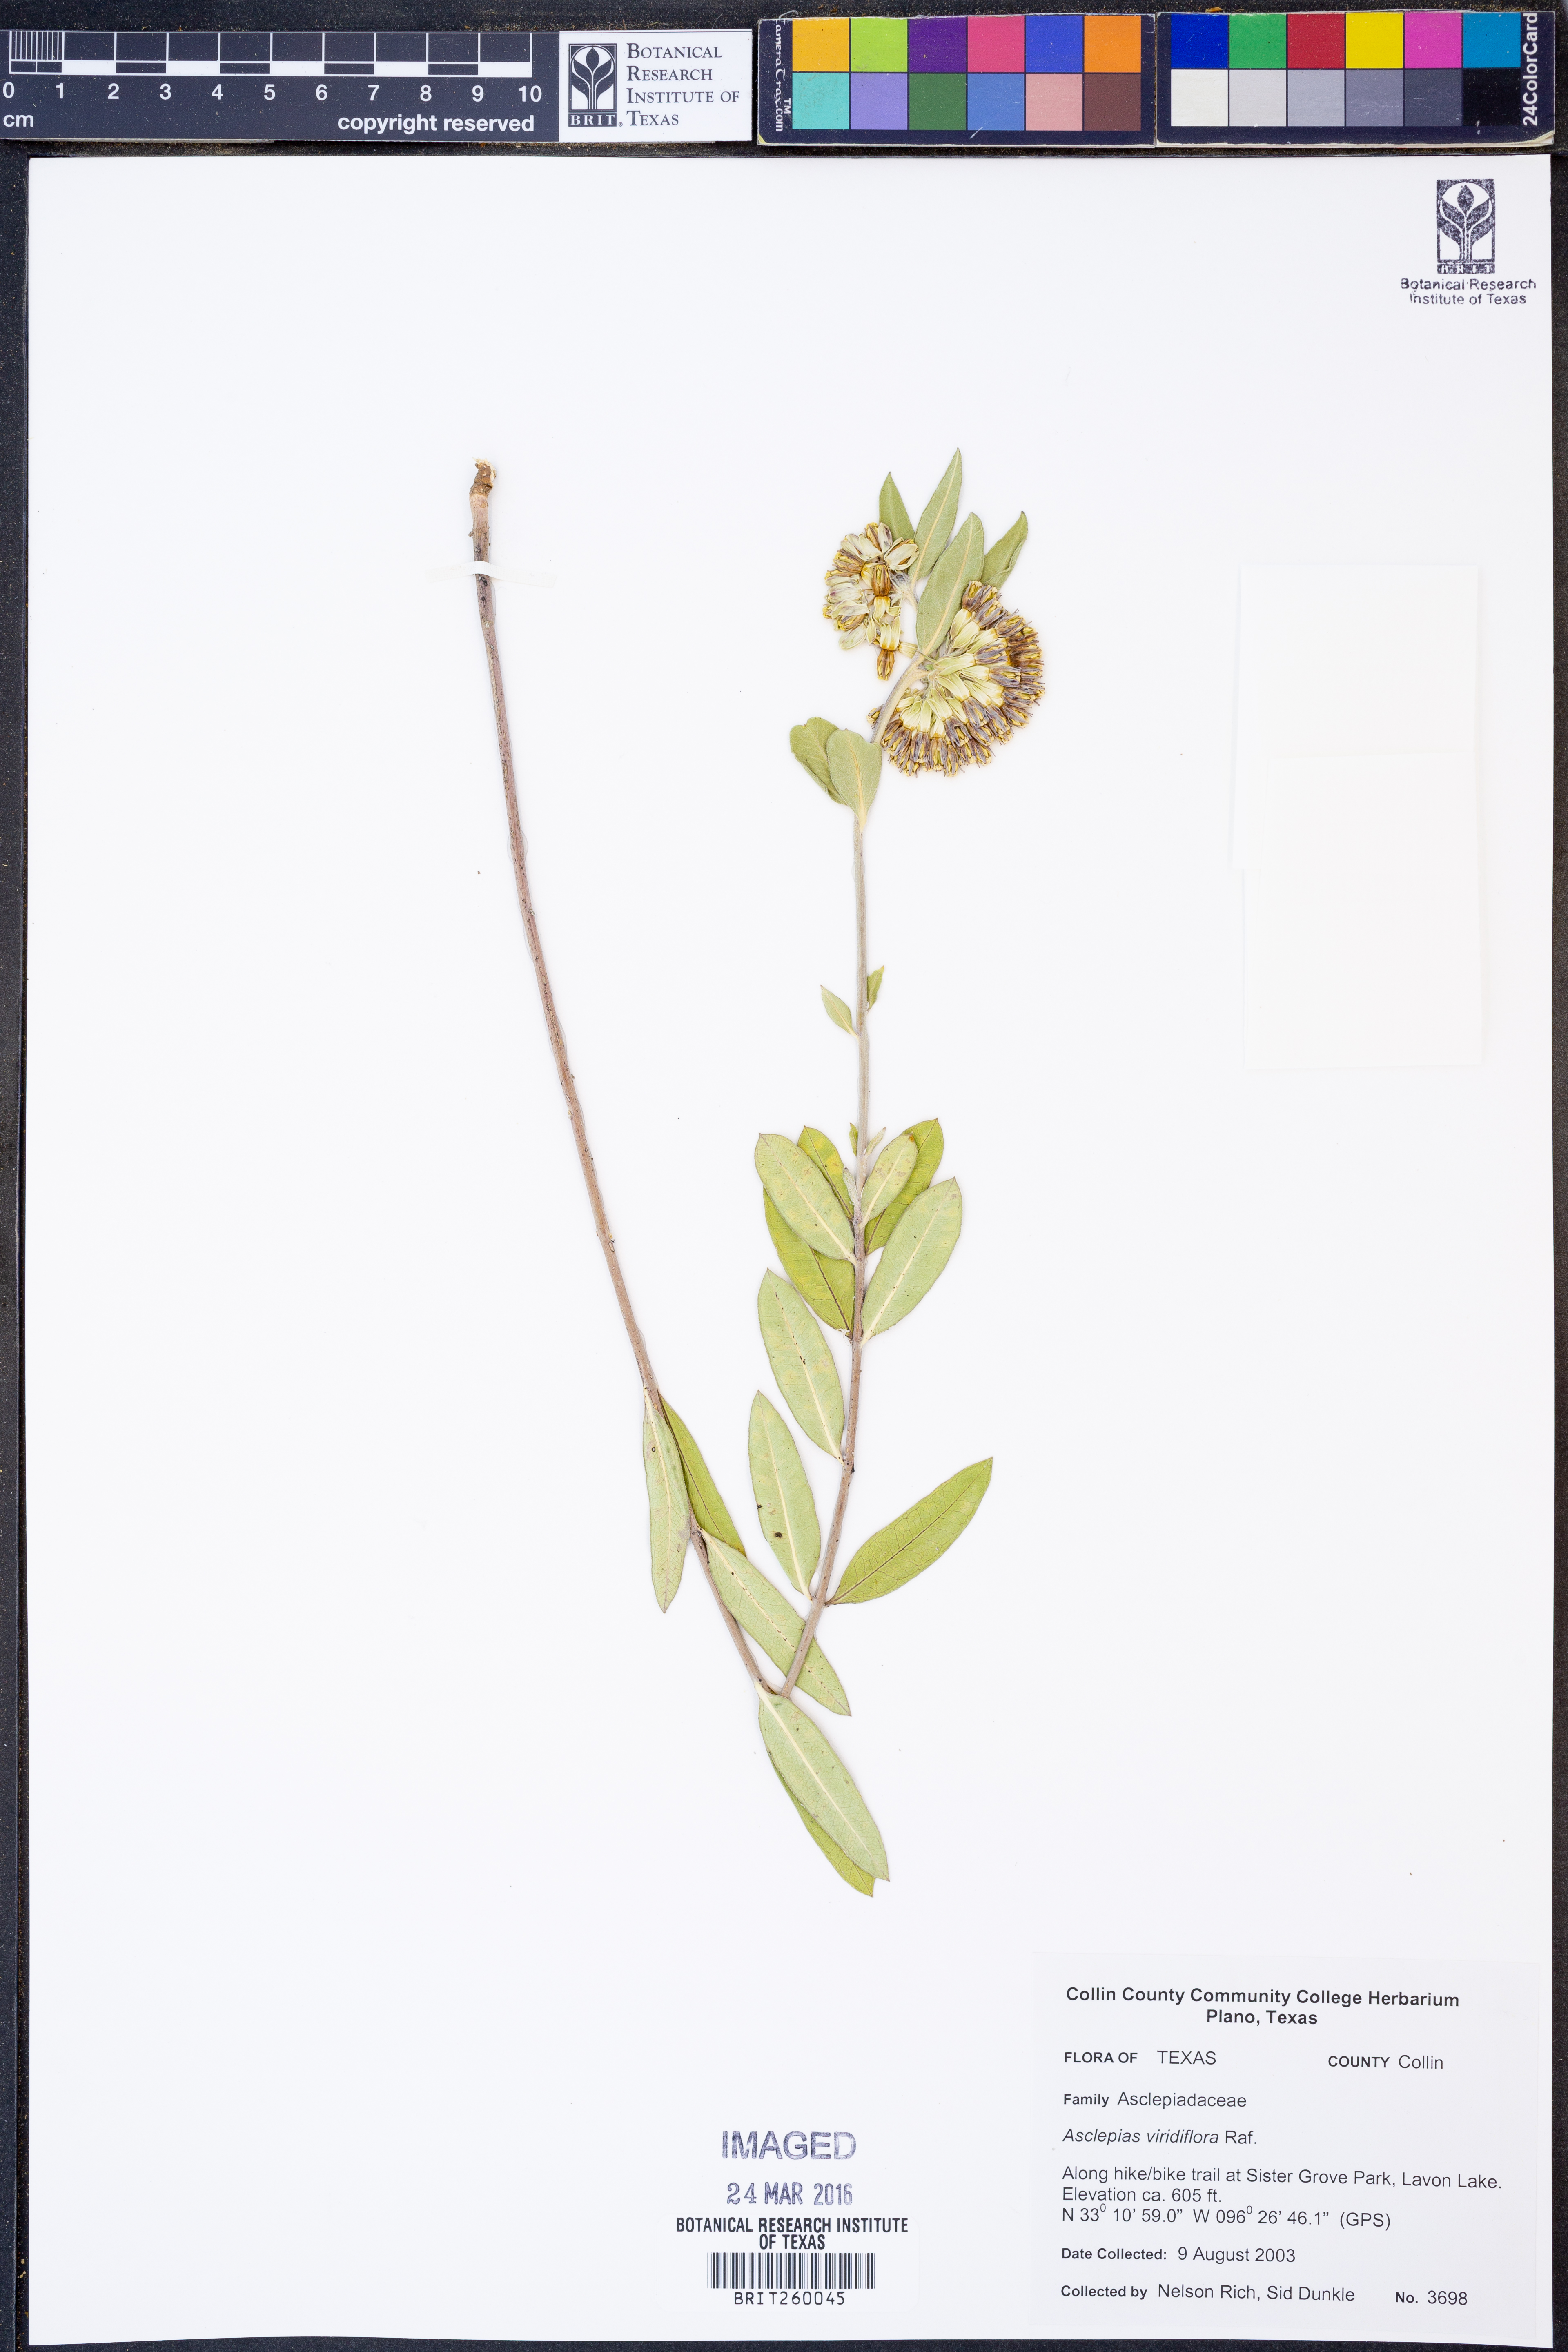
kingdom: Plantae
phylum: Tracheophyta
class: Magnoliopsida
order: Gentianales
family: Apocynaceae
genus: Asclepias
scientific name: Asclepias viridiflora
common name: Green comet milkweed
